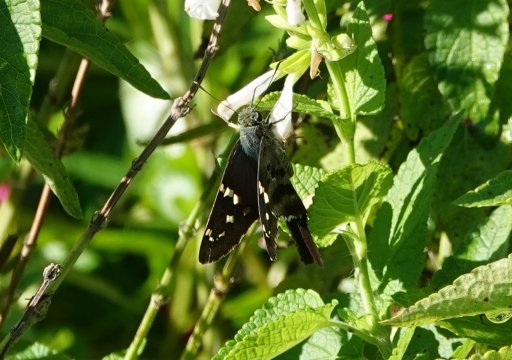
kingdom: Animalia
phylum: Arthropoda
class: Insecta
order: Lepidoptera
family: Hesperiidae
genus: Urbanus
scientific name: Urbanus proteus
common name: Long-tailed Skipper
